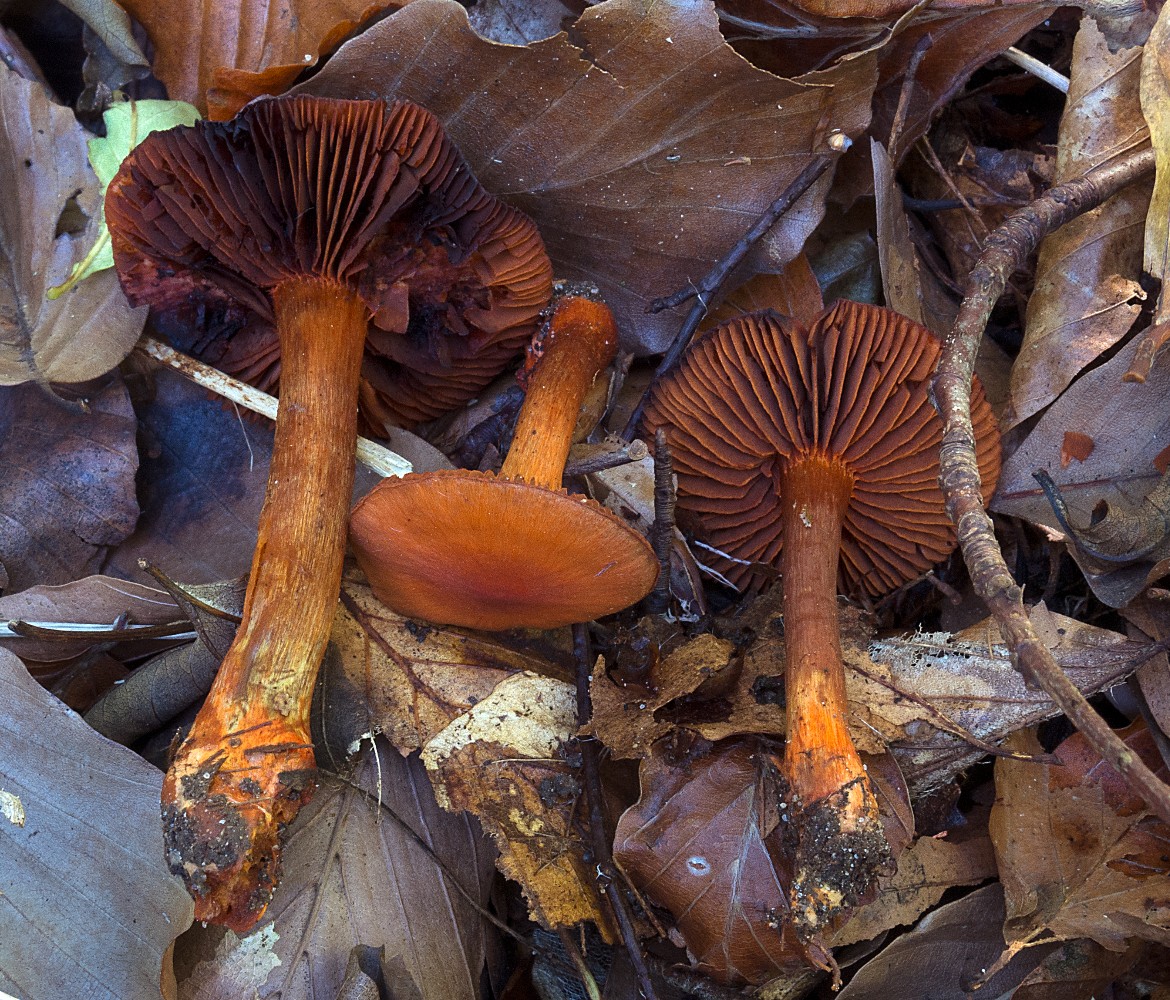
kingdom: Fungi
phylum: Basidiomycota
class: Agaricomycetes
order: Agaricales
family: Cortinariaceae
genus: Cortinarius
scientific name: Cortinarius cinnabarinus
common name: cinnober-slørhat
